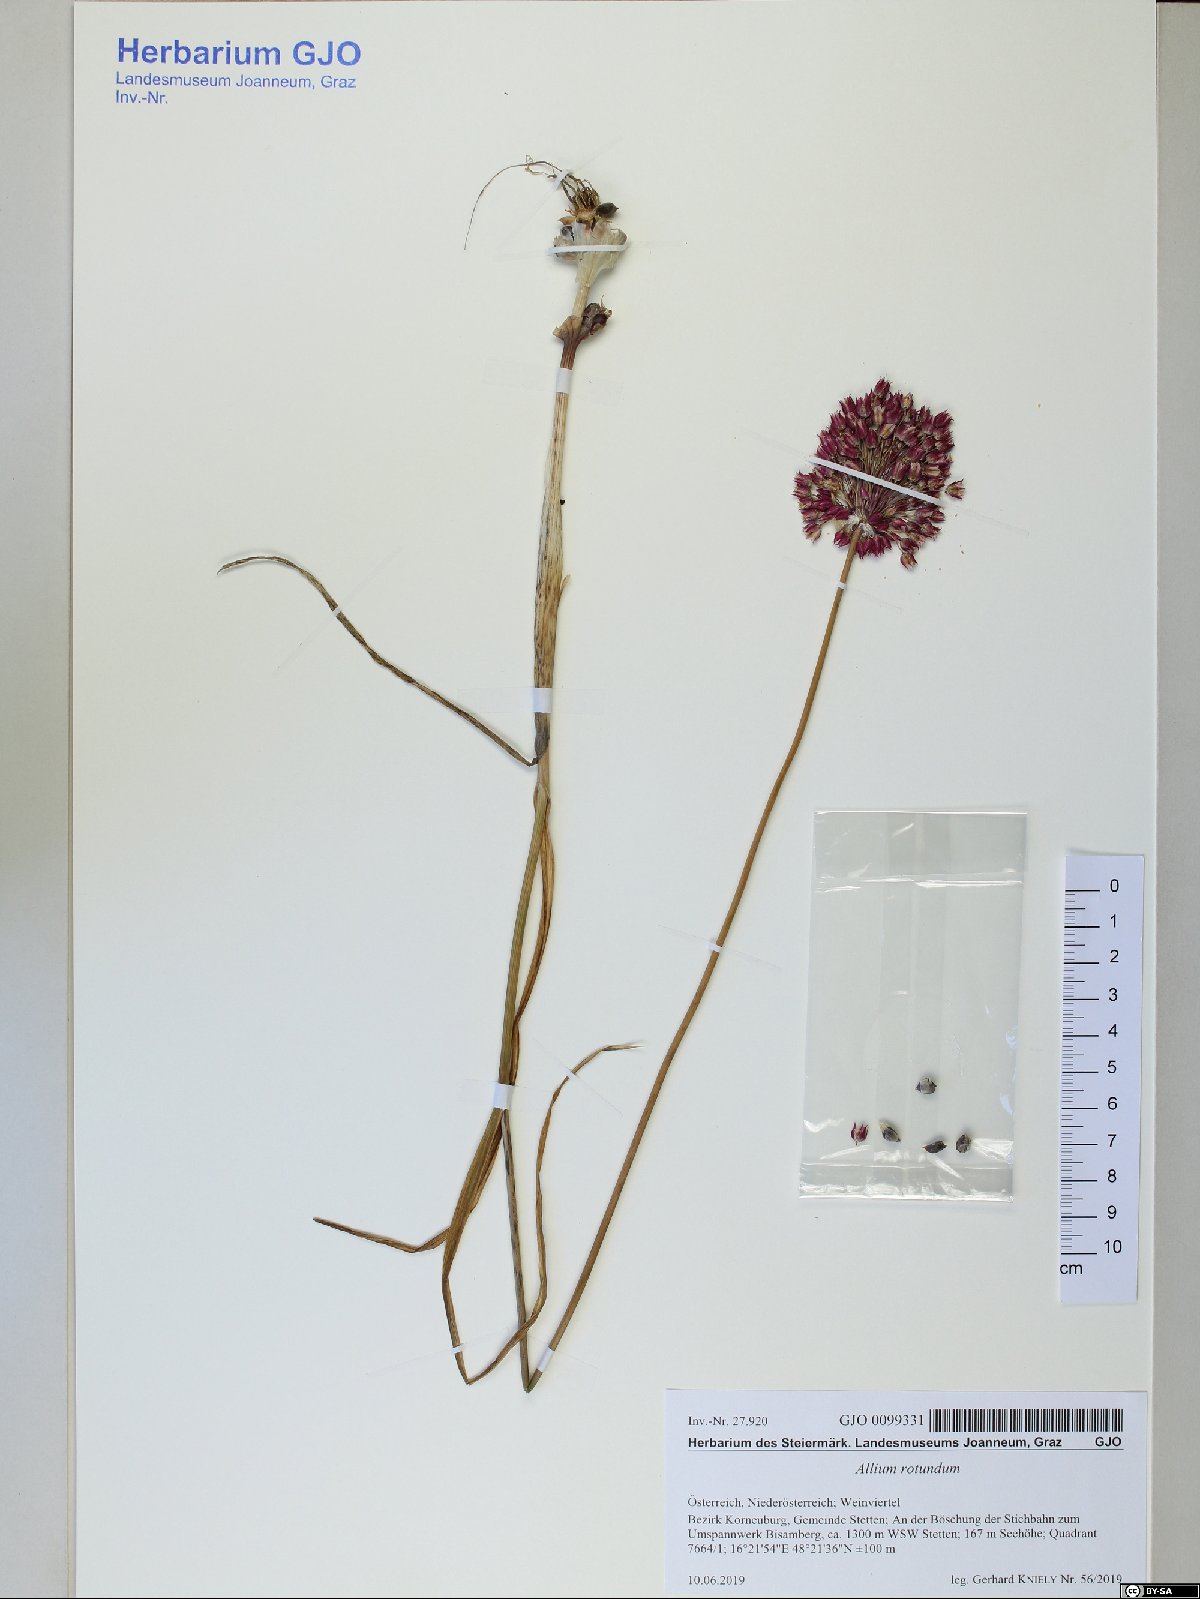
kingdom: Plantae
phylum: Tracheophyta
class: Liliopsida
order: Asparagales
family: Amaryllidaceae
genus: Allium
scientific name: Allium rotundum
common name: Sand leek
